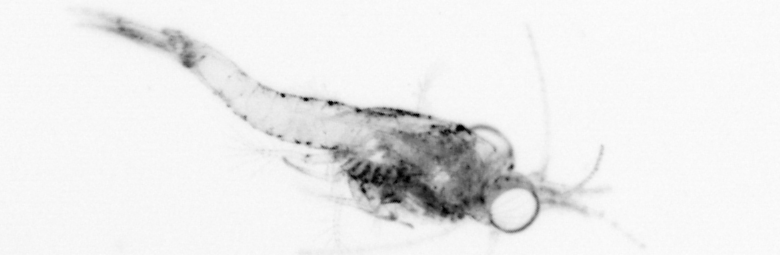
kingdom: Animalia
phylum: Arthropoda
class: Malacostraca
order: Decapoda
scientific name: Decapoda
